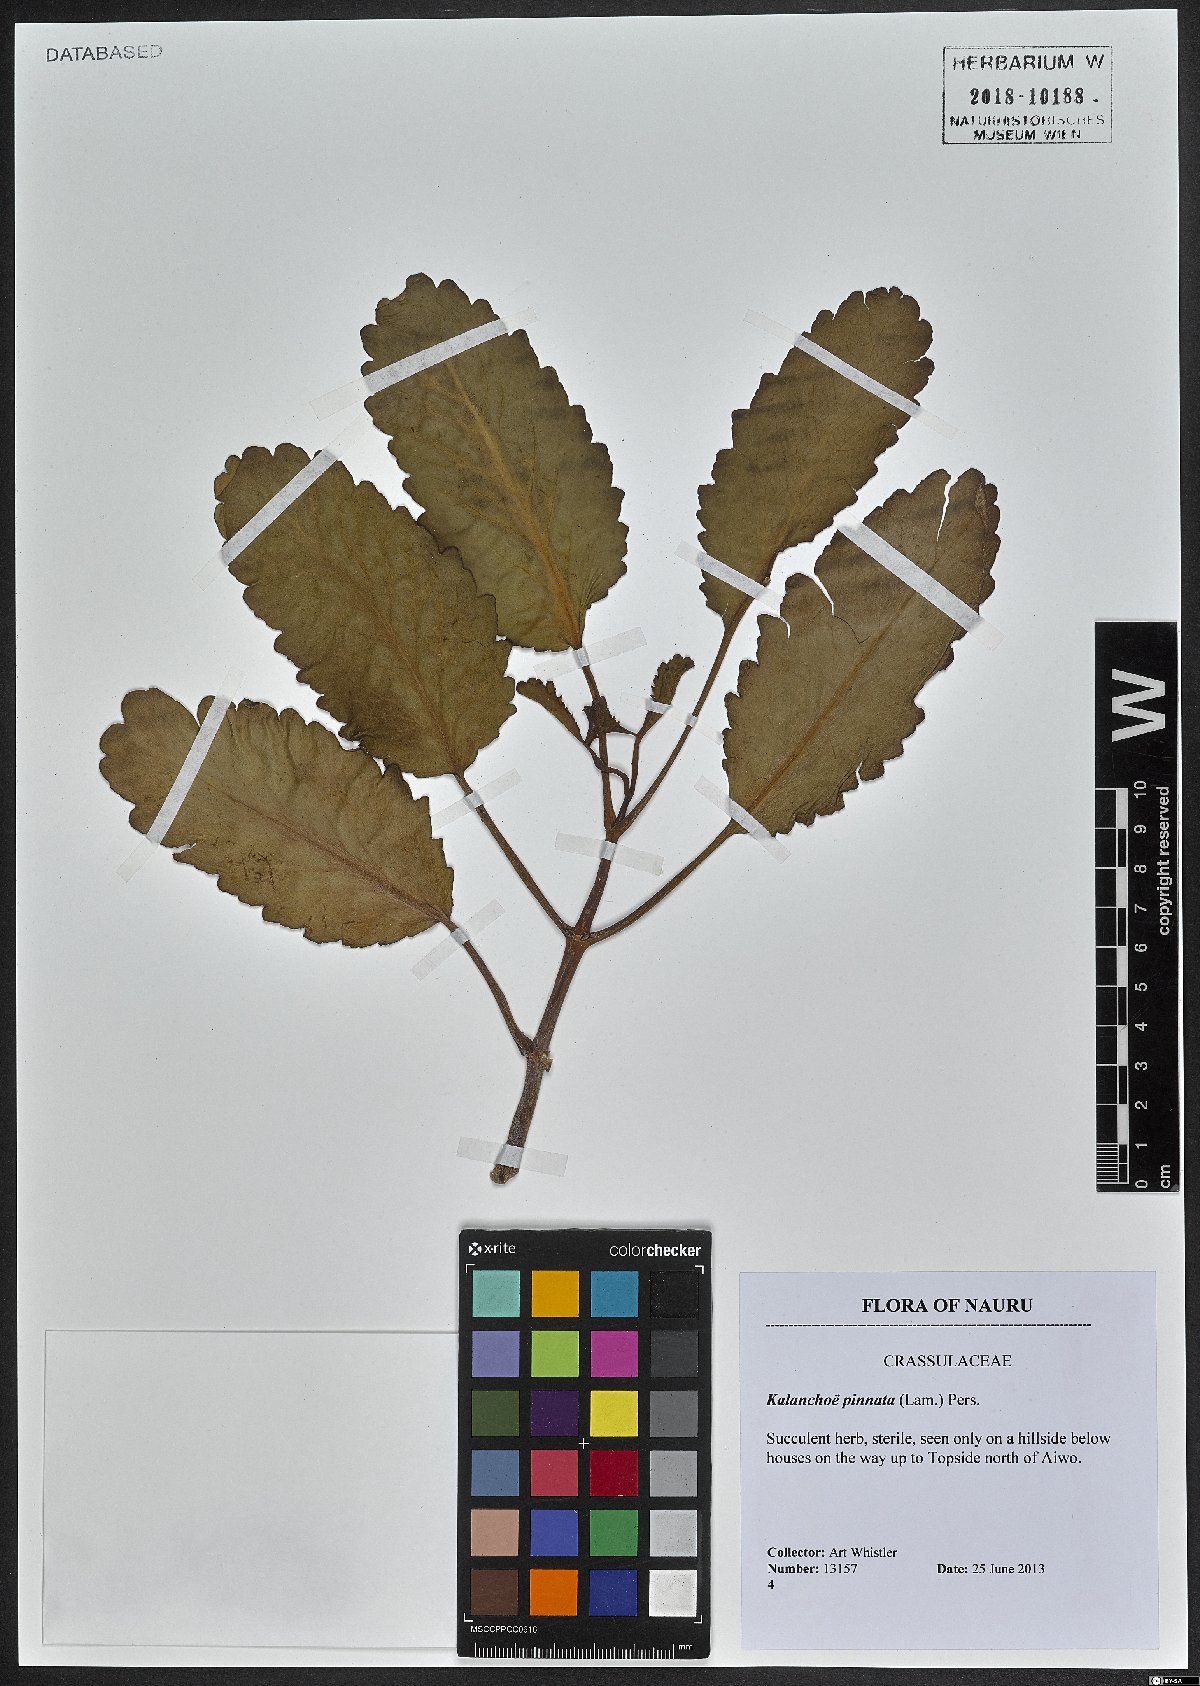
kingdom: Plantae
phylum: Tracheophyta
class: Magnoliopsida
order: Saxifragales
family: Crassulaceae
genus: Kalanchoe
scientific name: Kalanchoe pinnata
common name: Cathedral bells
